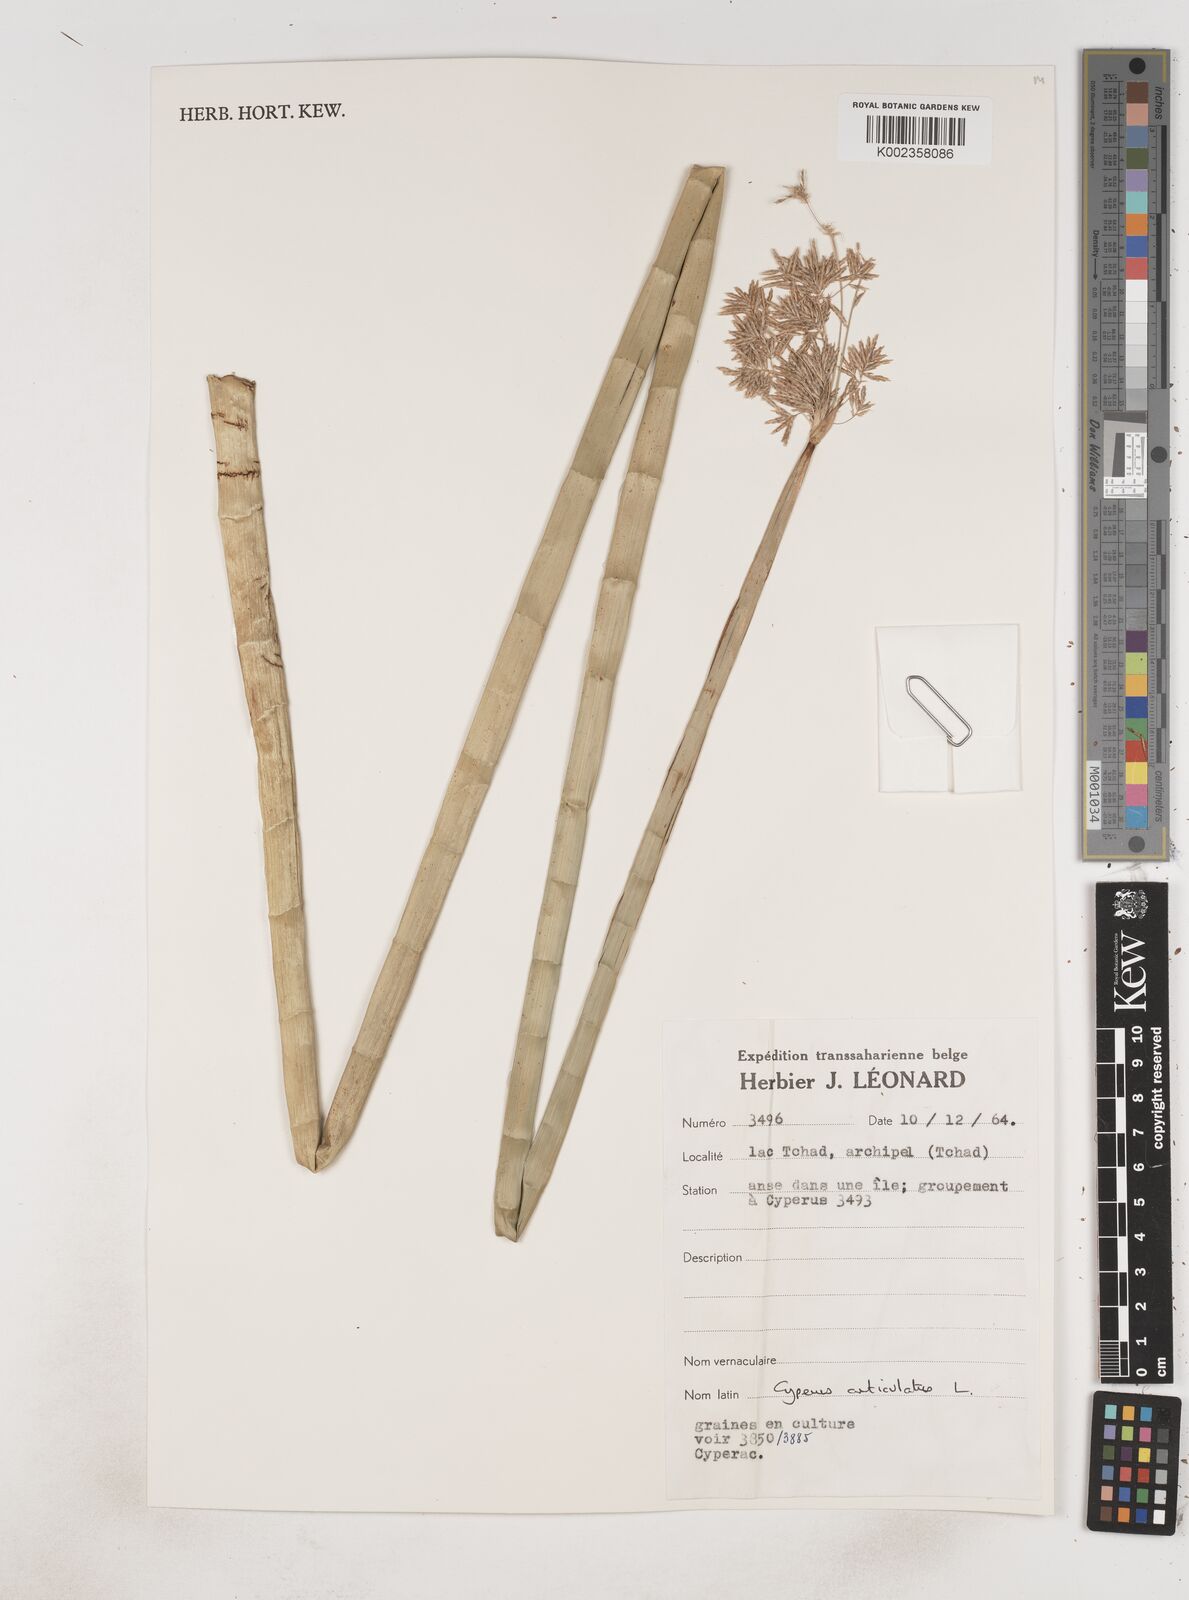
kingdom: Plantae
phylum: Tracheophyta
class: Liliopsida
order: Poales
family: Cyperaceae
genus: Cyperus
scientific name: Cyperus articulatus
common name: Jointed flatsedge
